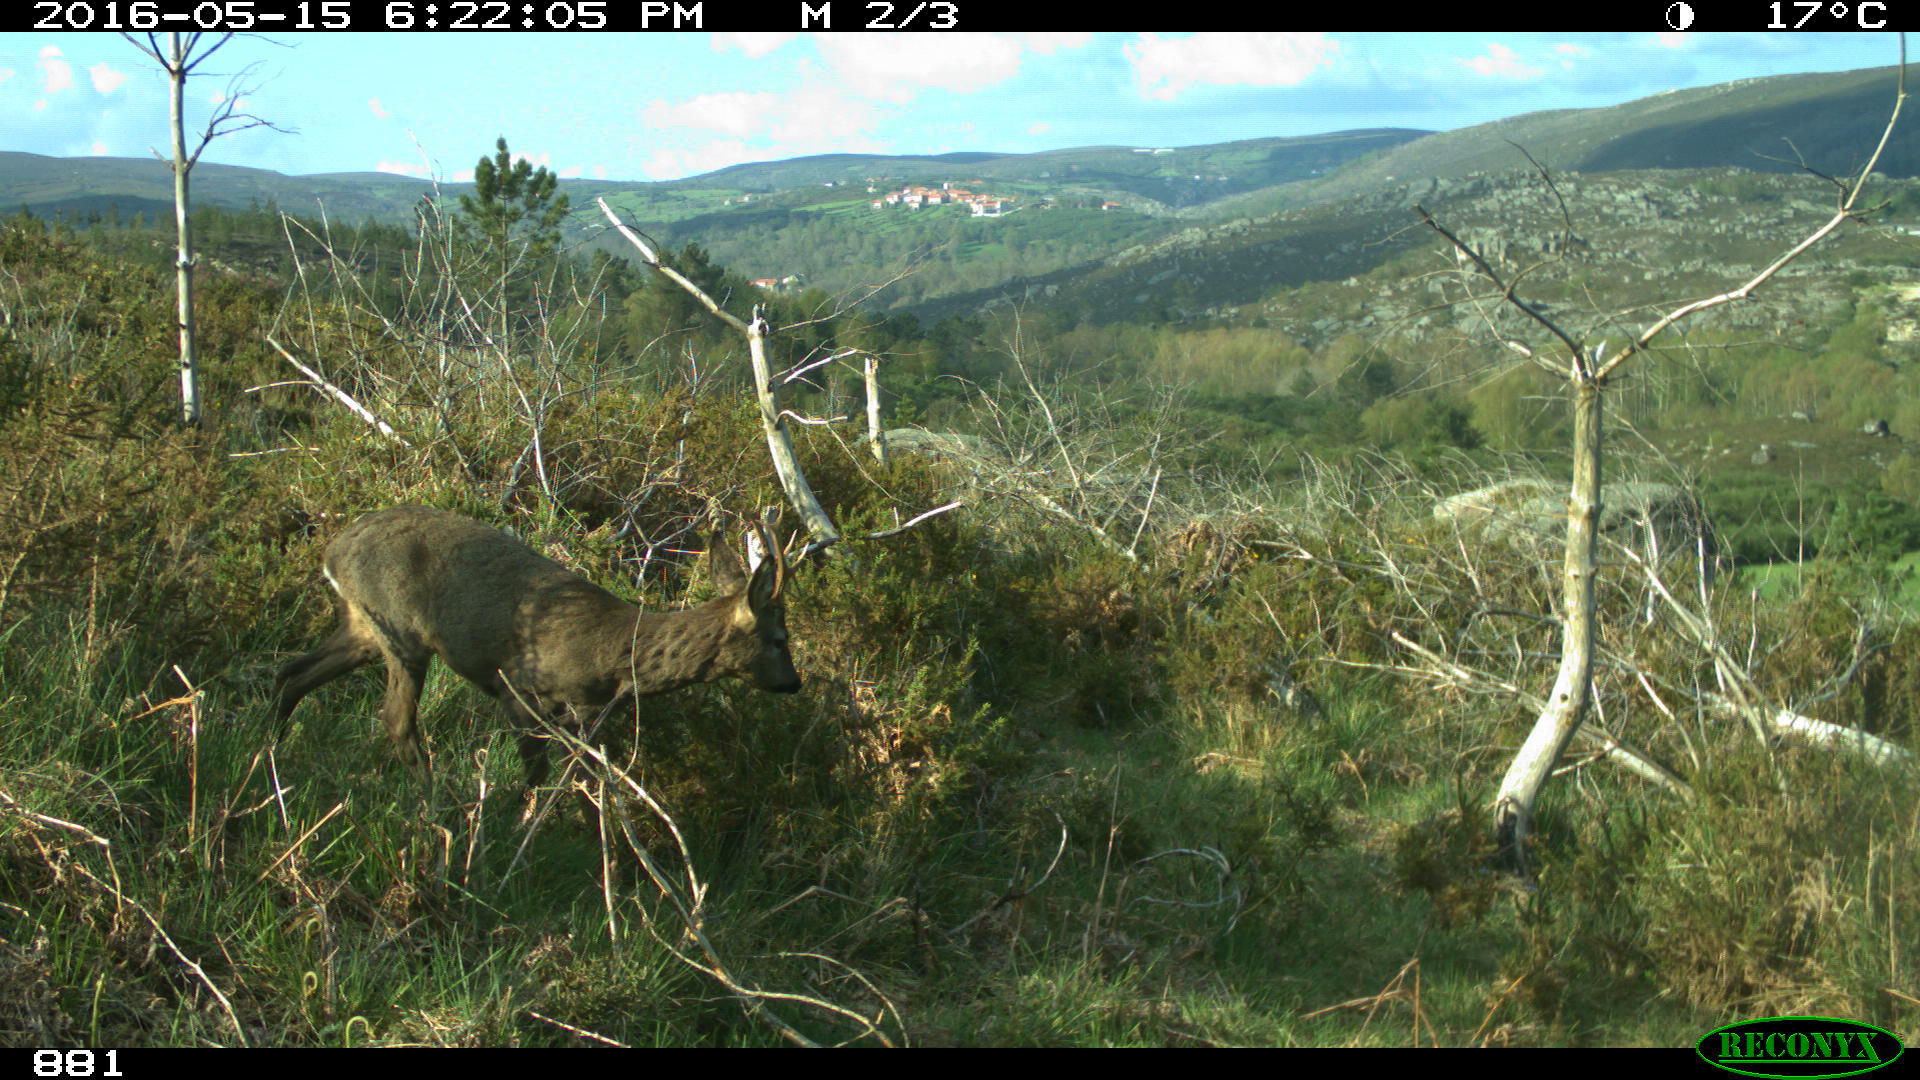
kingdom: Animalia
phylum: Chordata
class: Mammalia
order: Artiodactyla
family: Cervidae
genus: Capreolus
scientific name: Capreolus capreolus
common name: Western roe deer
